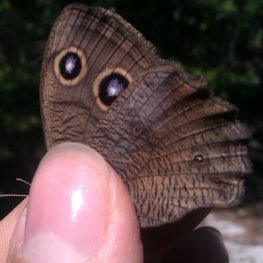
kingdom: Animalia
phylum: Arthropoda
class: Insecta
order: Lepidoptera
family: Nymphalidae
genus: Cercyonis
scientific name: Cercyonis pegala
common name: Common Wood-Nymph
